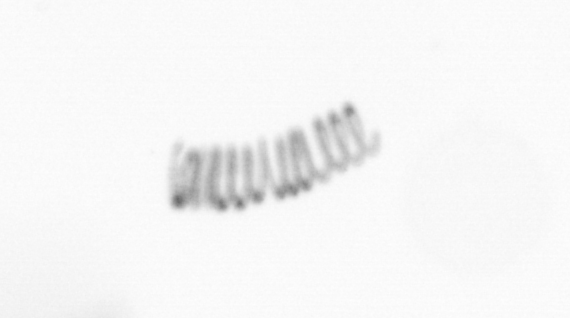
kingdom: Chromista
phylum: Ochrophyta
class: Bacillariophyceae
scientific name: Bacillariophyceae
